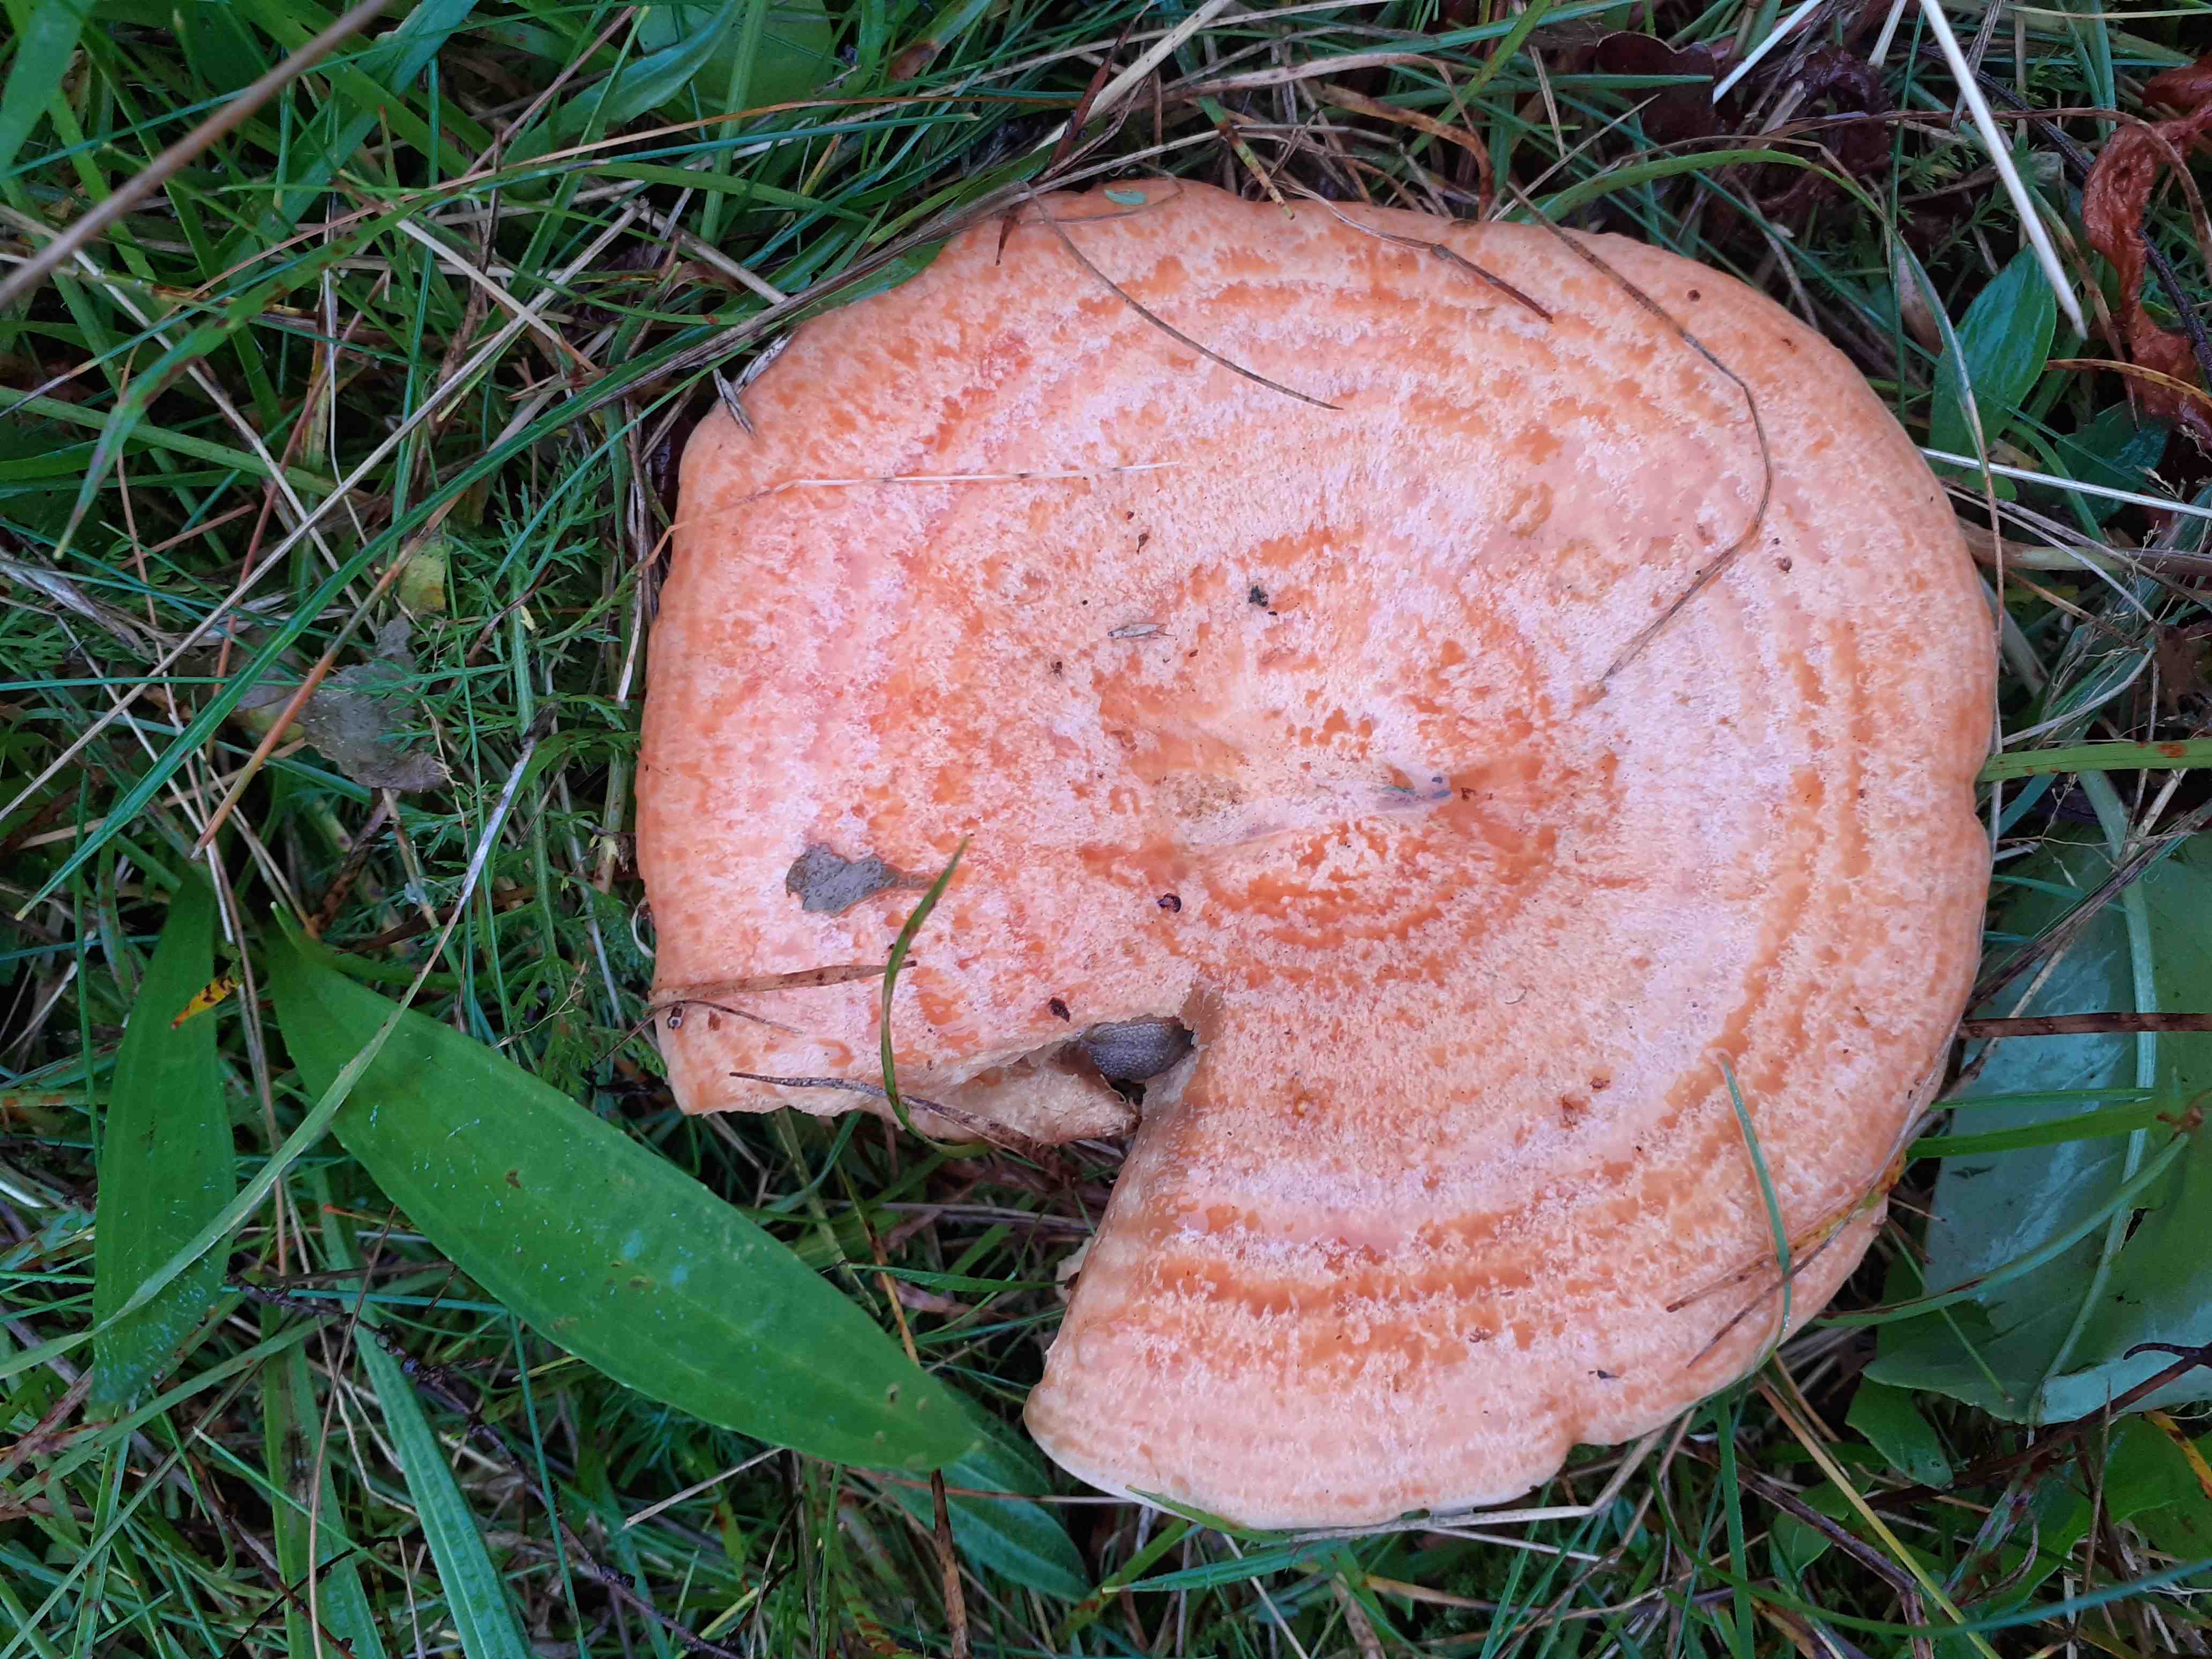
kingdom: Fungi
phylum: Basidiomycota
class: Agaricomycetes
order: Russulales
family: Russulaceae
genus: Lactarius
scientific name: Lactarius deliciosus
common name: velsmagende mælkehat
